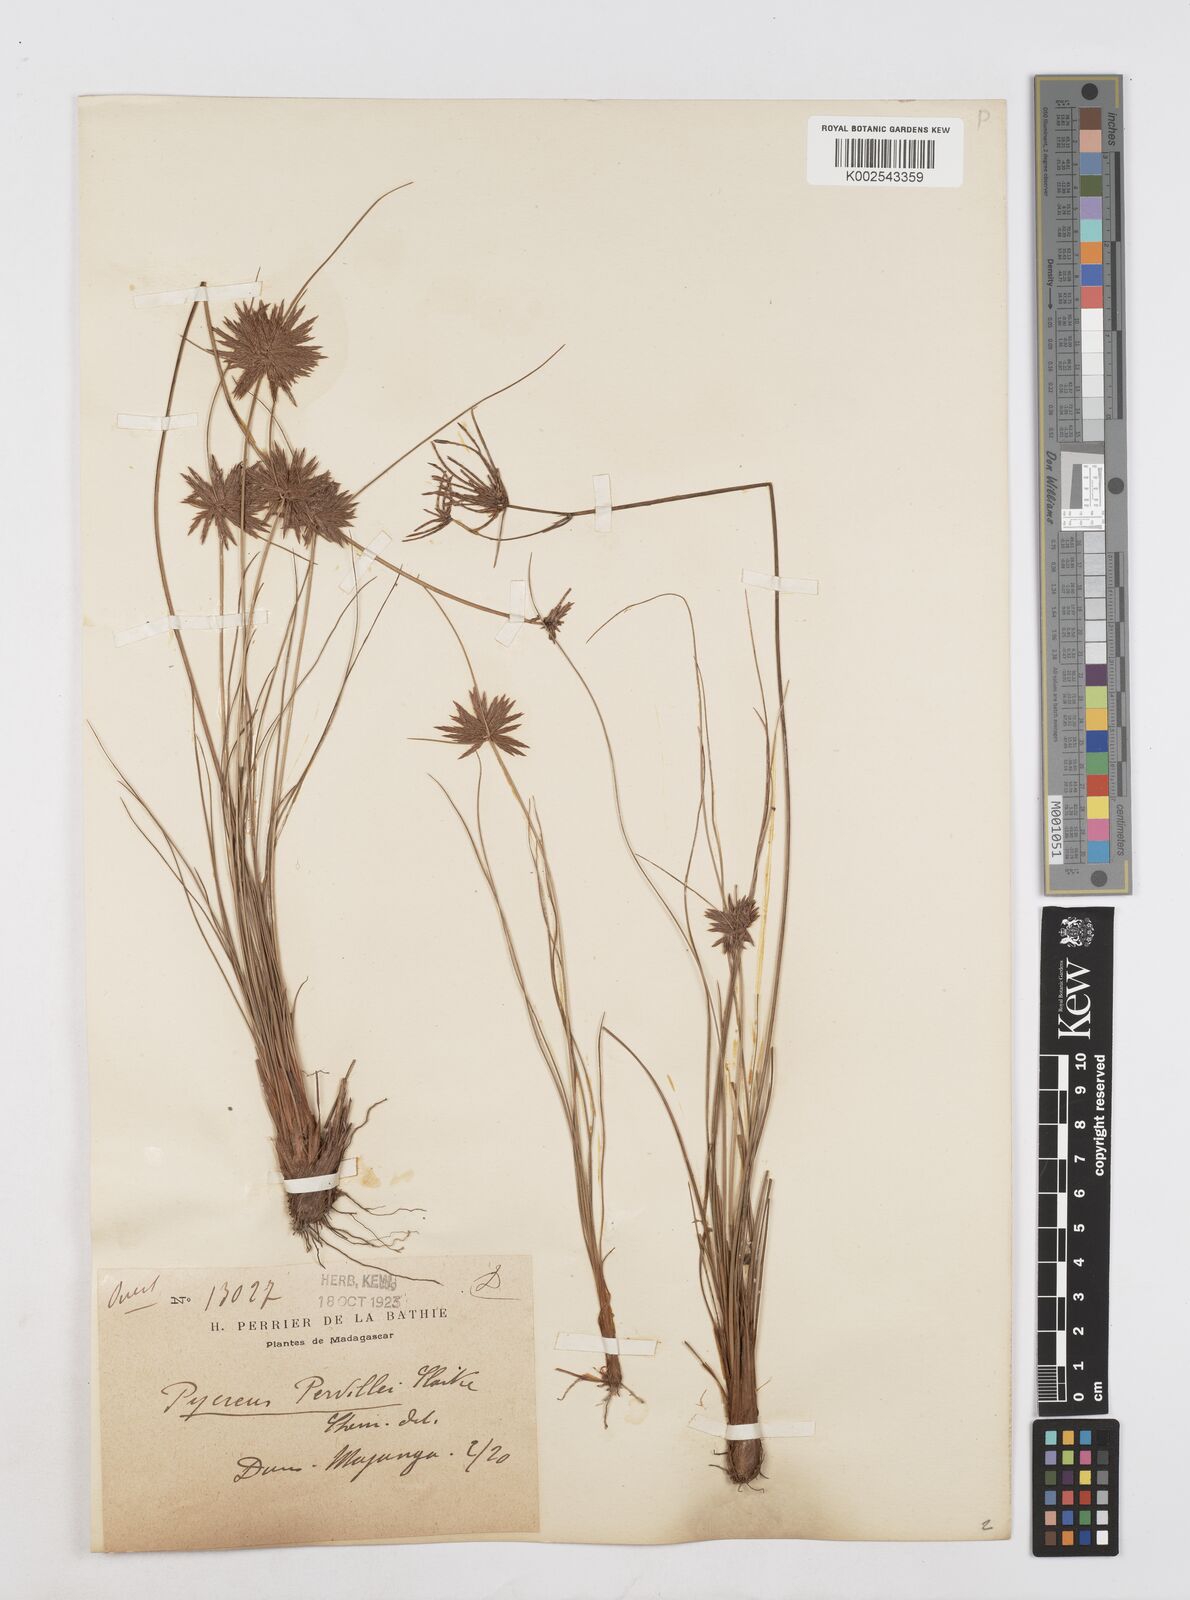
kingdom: Plantae
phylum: Tracheophyta
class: Liliopsida
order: Poales
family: Cyperaceae
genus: Cyperus
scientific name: Cyperus pervillei
